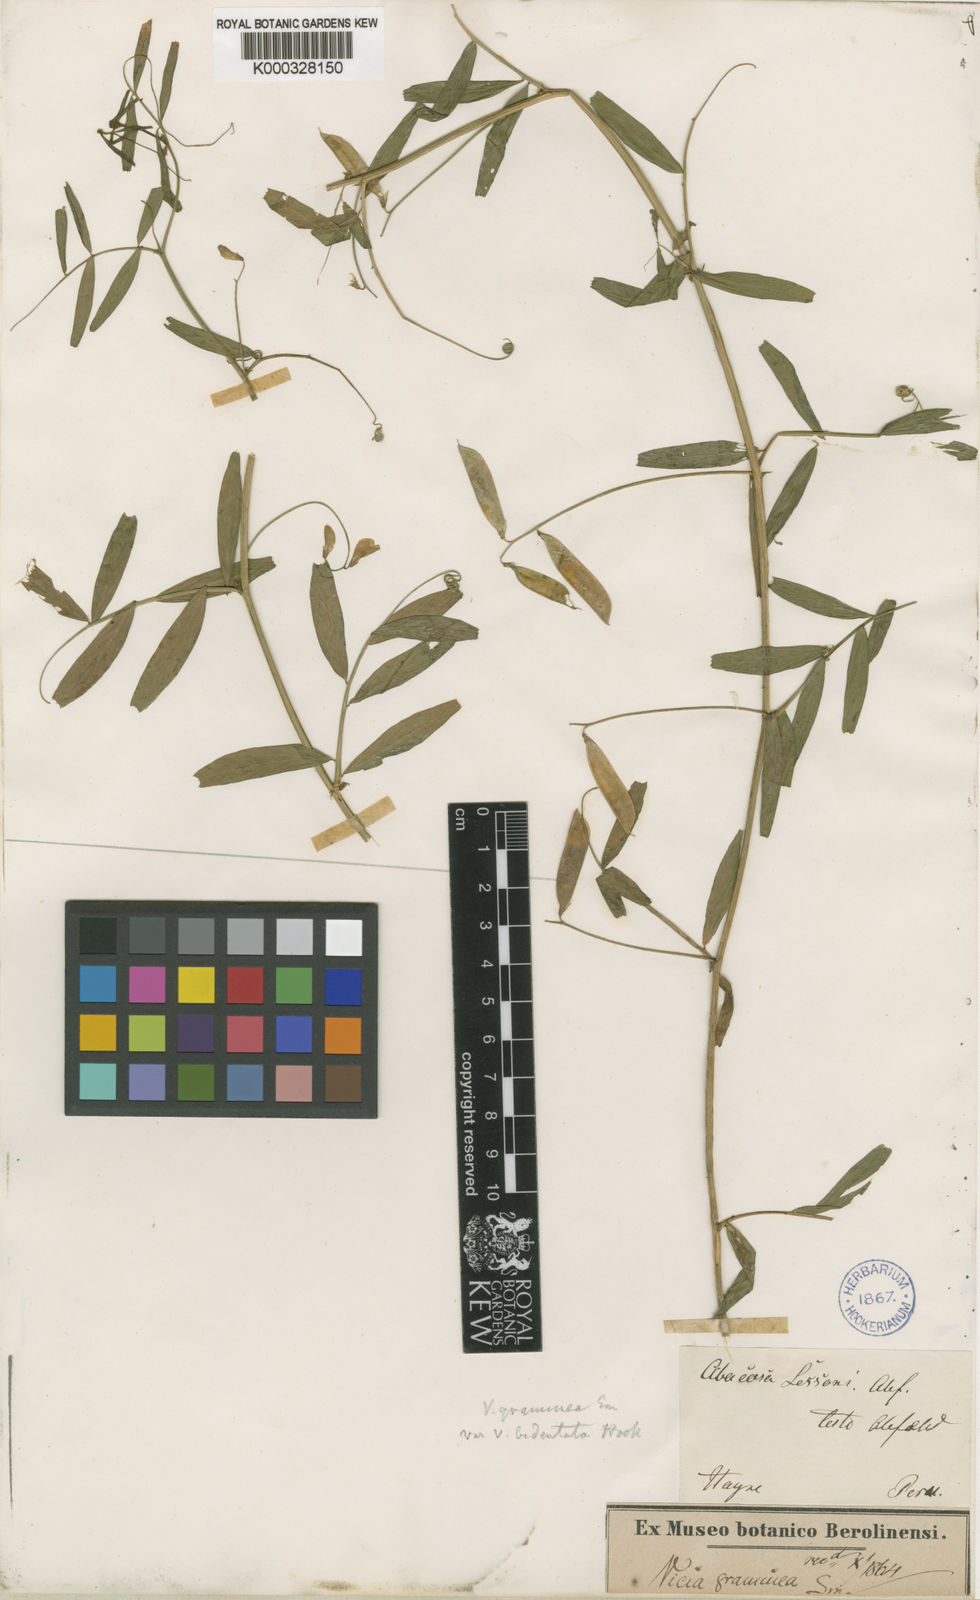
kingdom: Plantae
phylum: Tracheophyta
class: Magnoliopsida
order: Fabales
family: Fabaceae
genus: Vicia
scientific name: Vicia graminea
